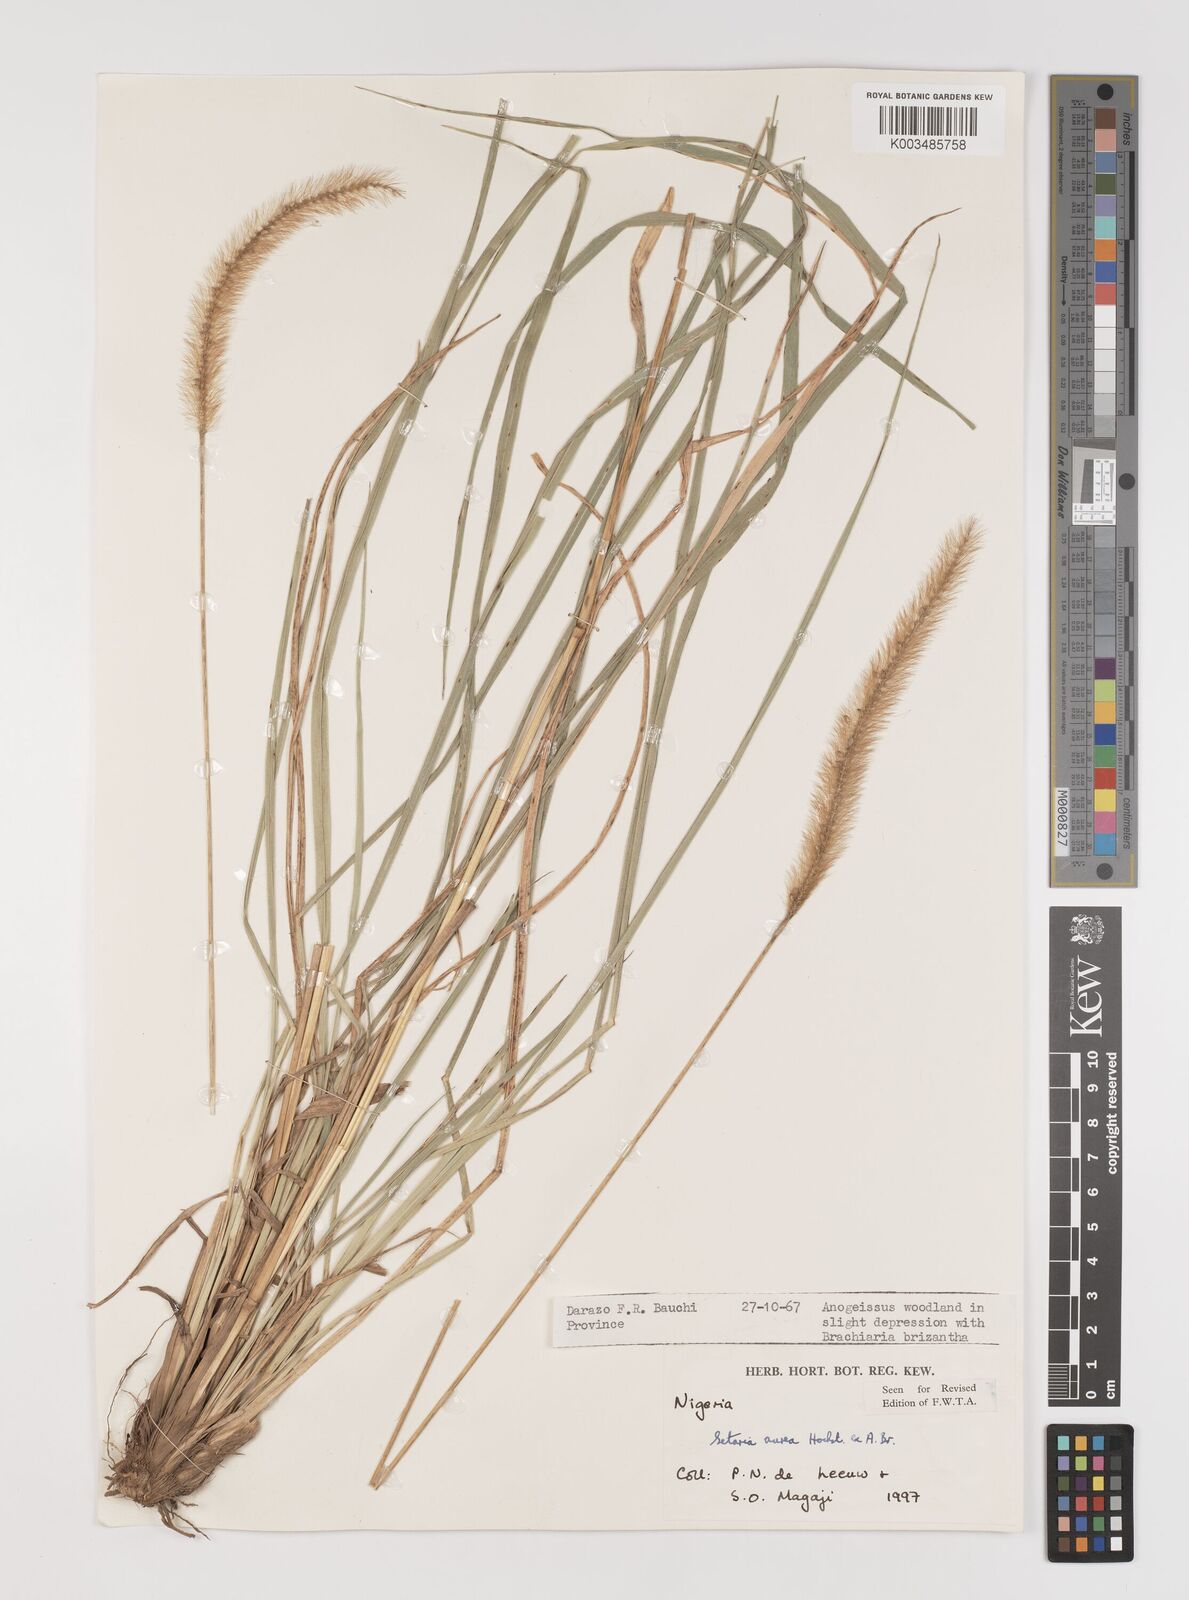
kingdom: Plantae
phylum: Tracheophyta
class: Liliopsida
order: Poales
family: Poaceae
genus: Setaria
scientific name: Setaria sphacelata
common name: African bristlegrass
